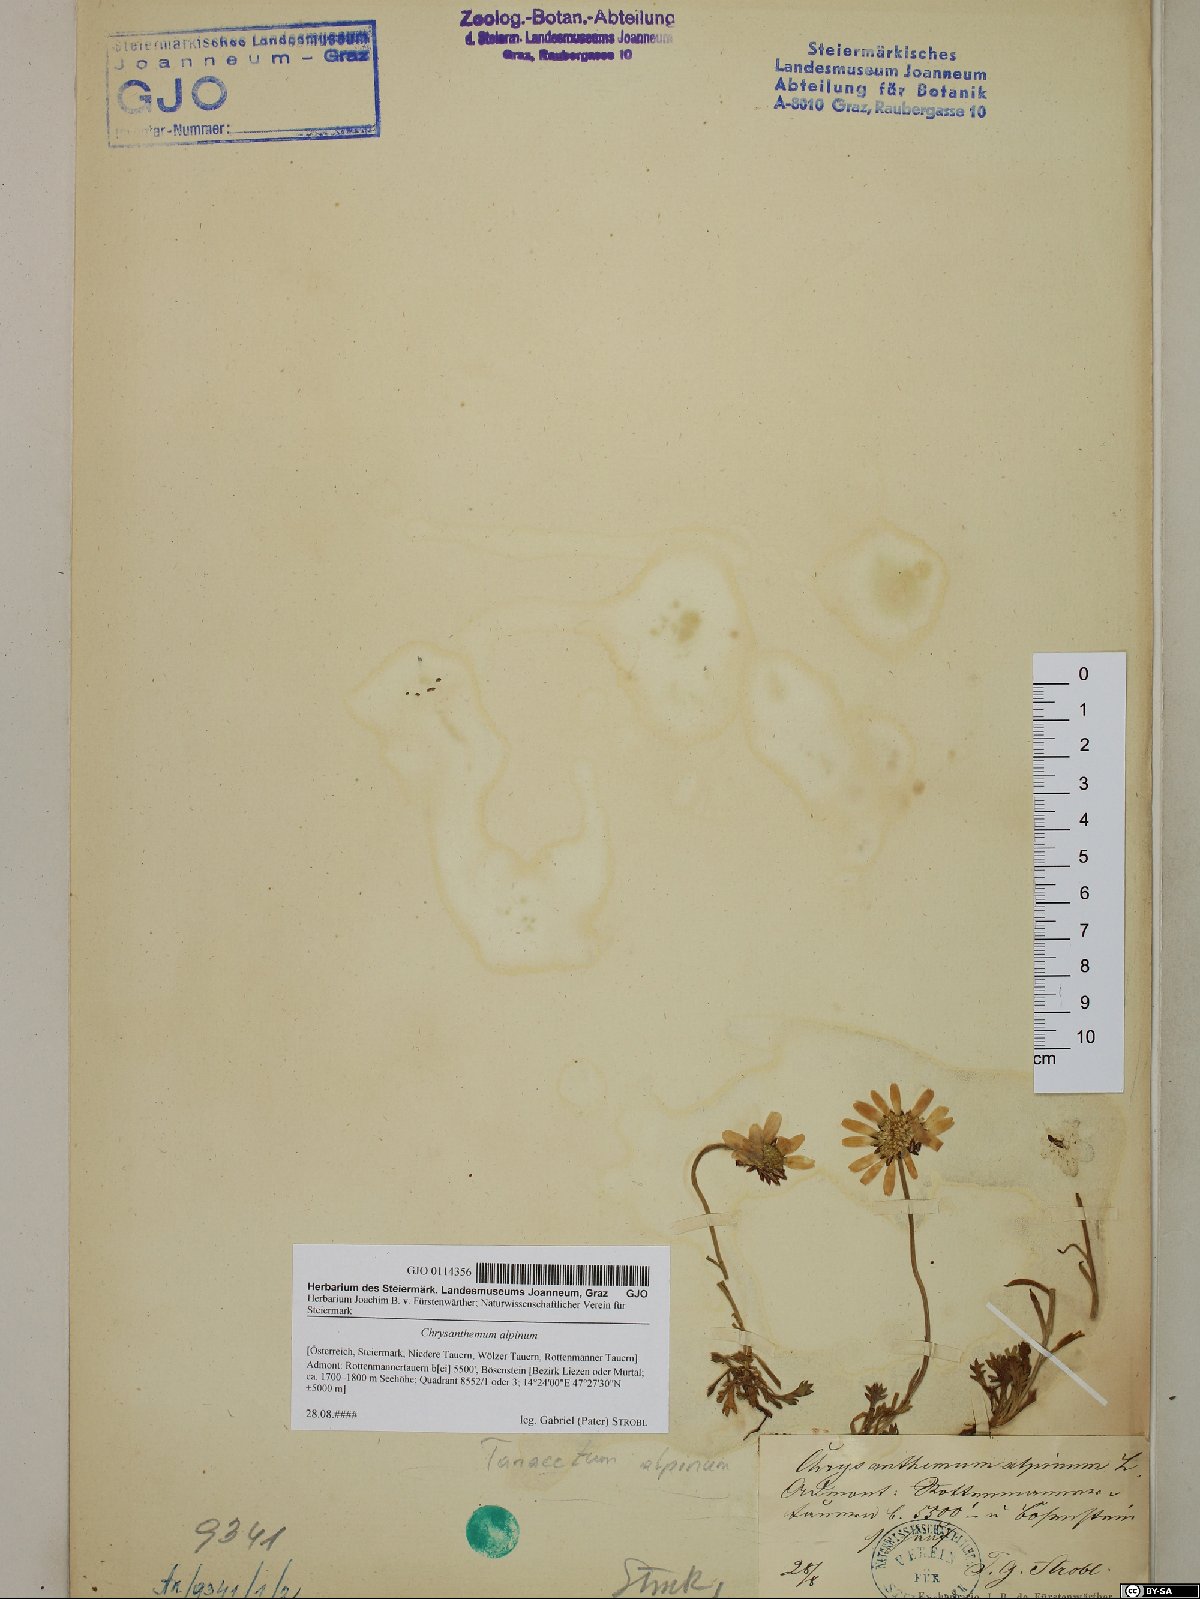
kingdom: Plantae
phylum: Tracheophyta
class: Magnoliopsida
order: Asterales
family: Asteraceae
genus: Leucanthemopsis
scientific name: Leucanthemopsis alpina
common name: Alpine moon daisy
